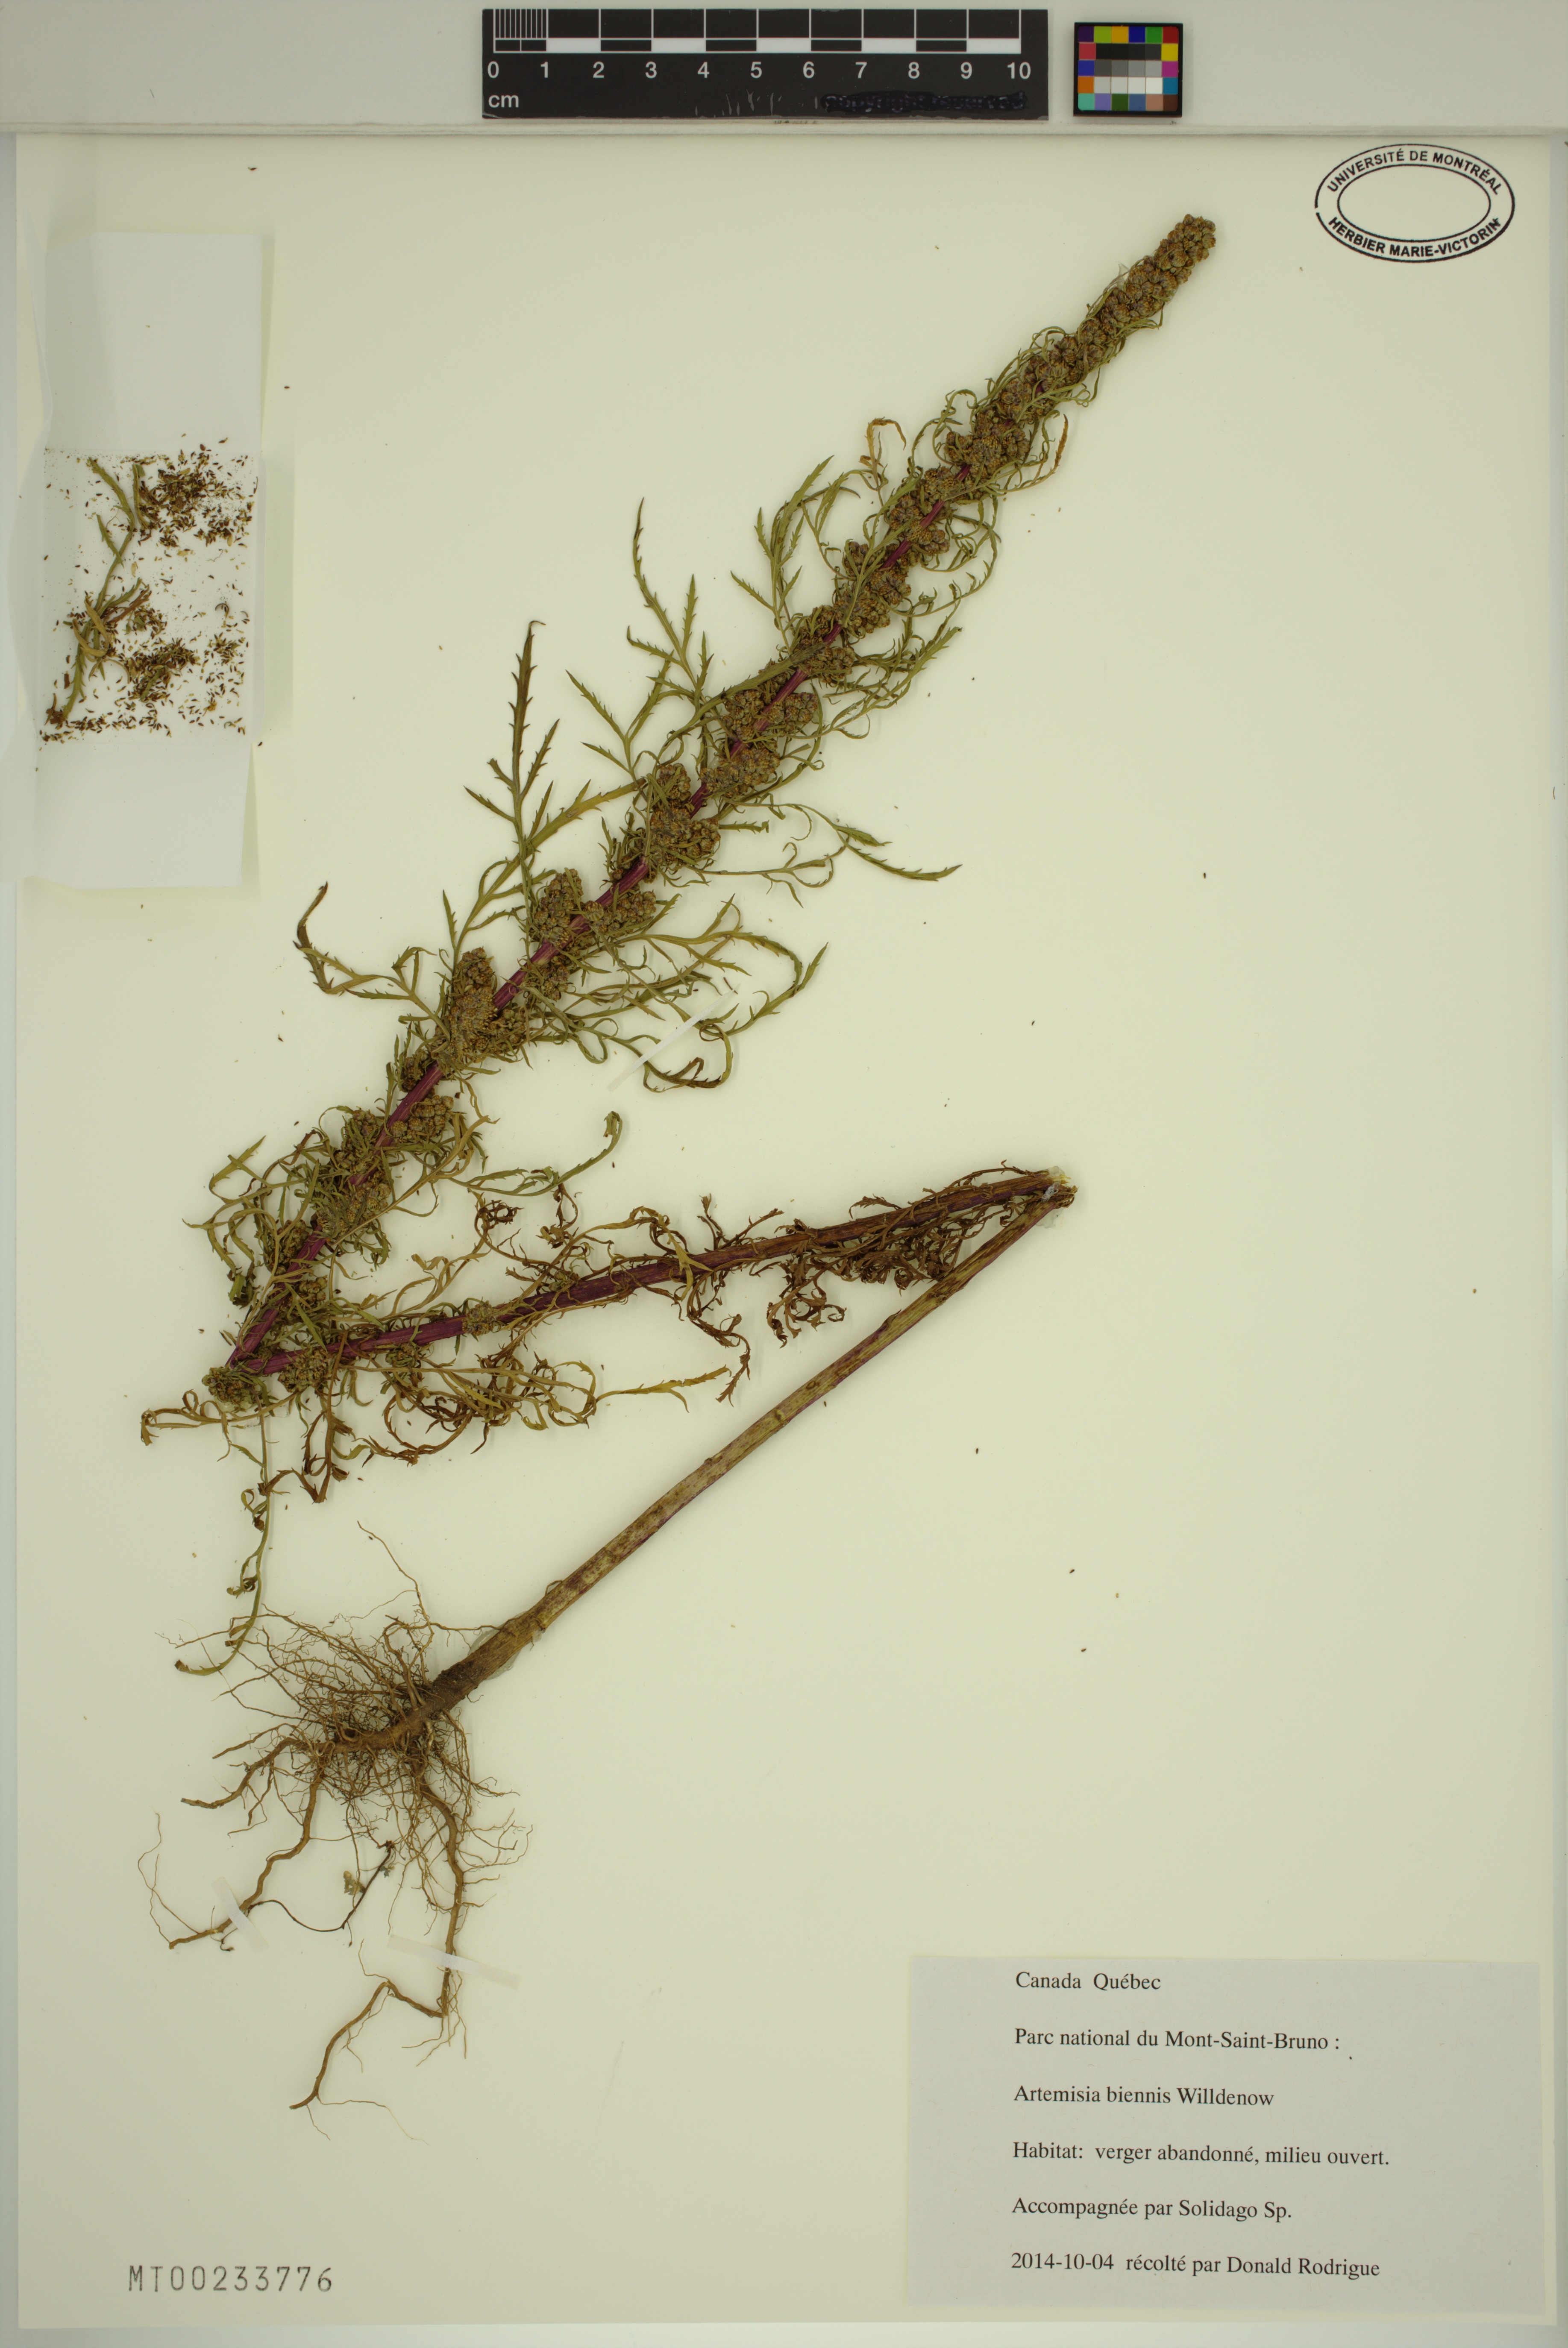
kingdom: Plantae
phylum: Tracheophyta
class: Magnoliopsida
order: Asterales
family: Asteraceae
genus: Artemisia
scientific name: Artemisia biennis
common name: Biennial wormwood
